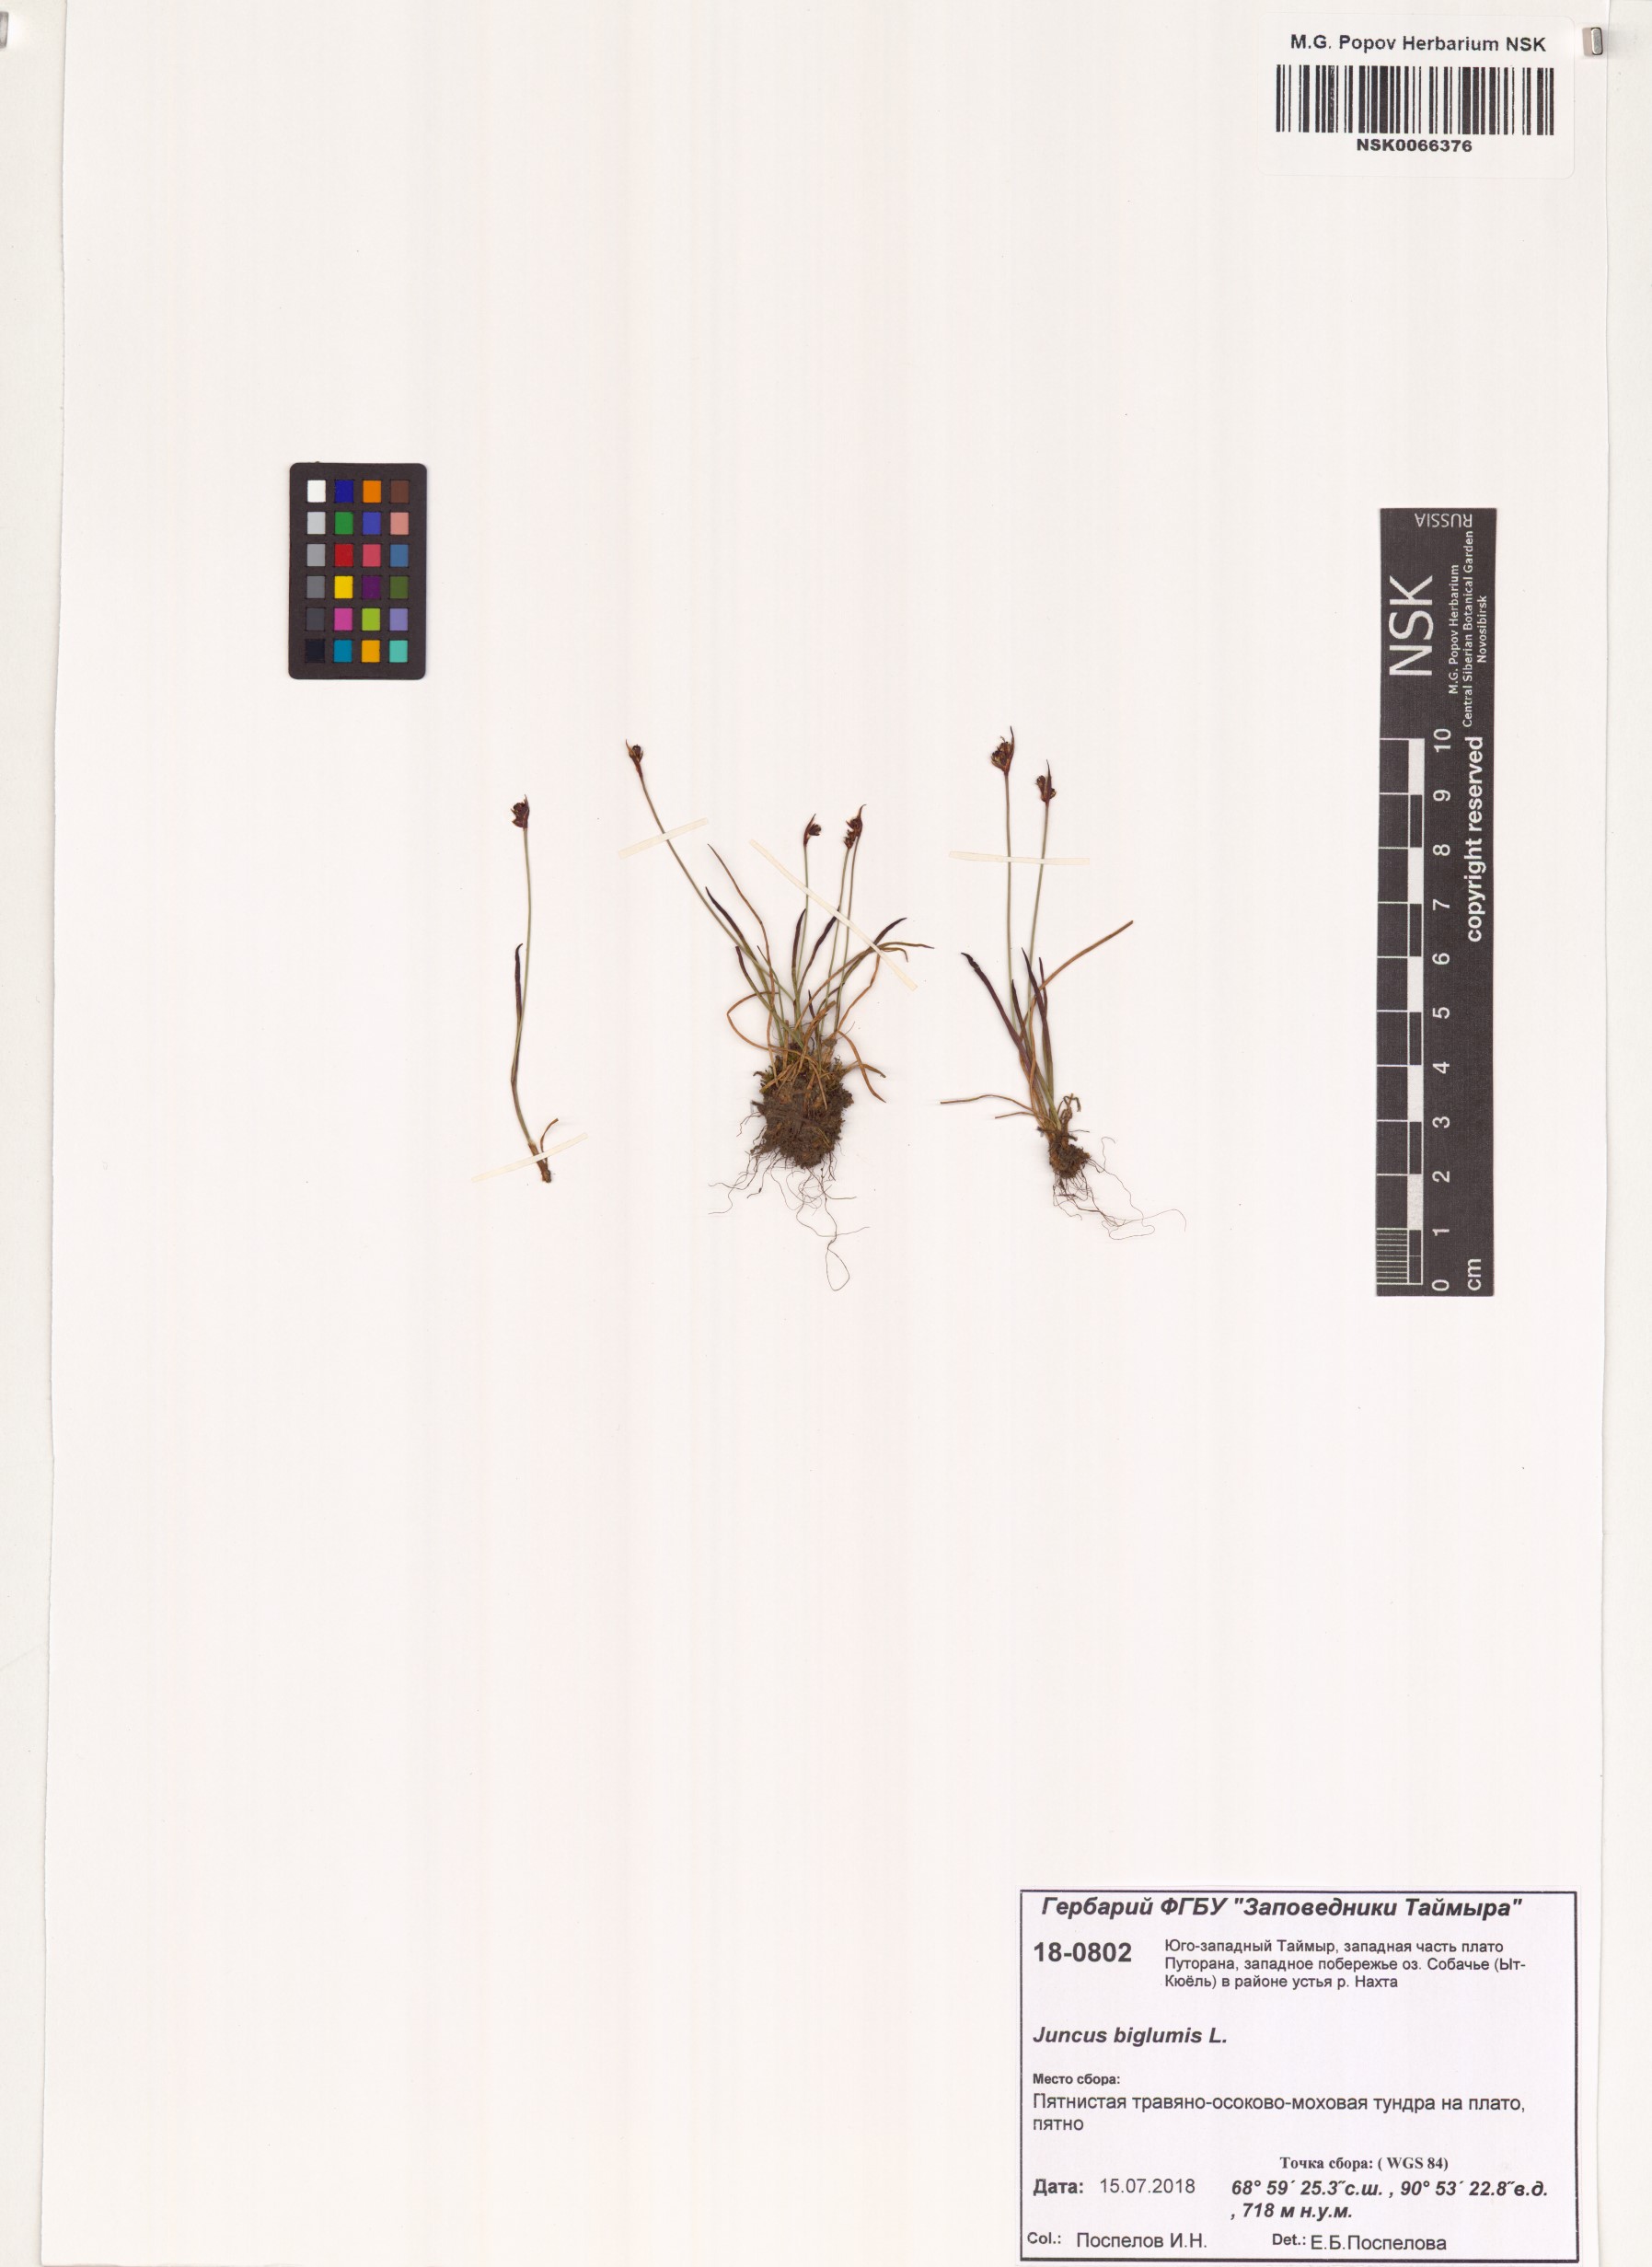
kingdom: Plantae
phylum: Tracheophyta
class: Liliopsida
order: Poales
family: Juncaceae
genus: Juncus
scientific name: Juncus biglumis
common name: Two-flowered rush
